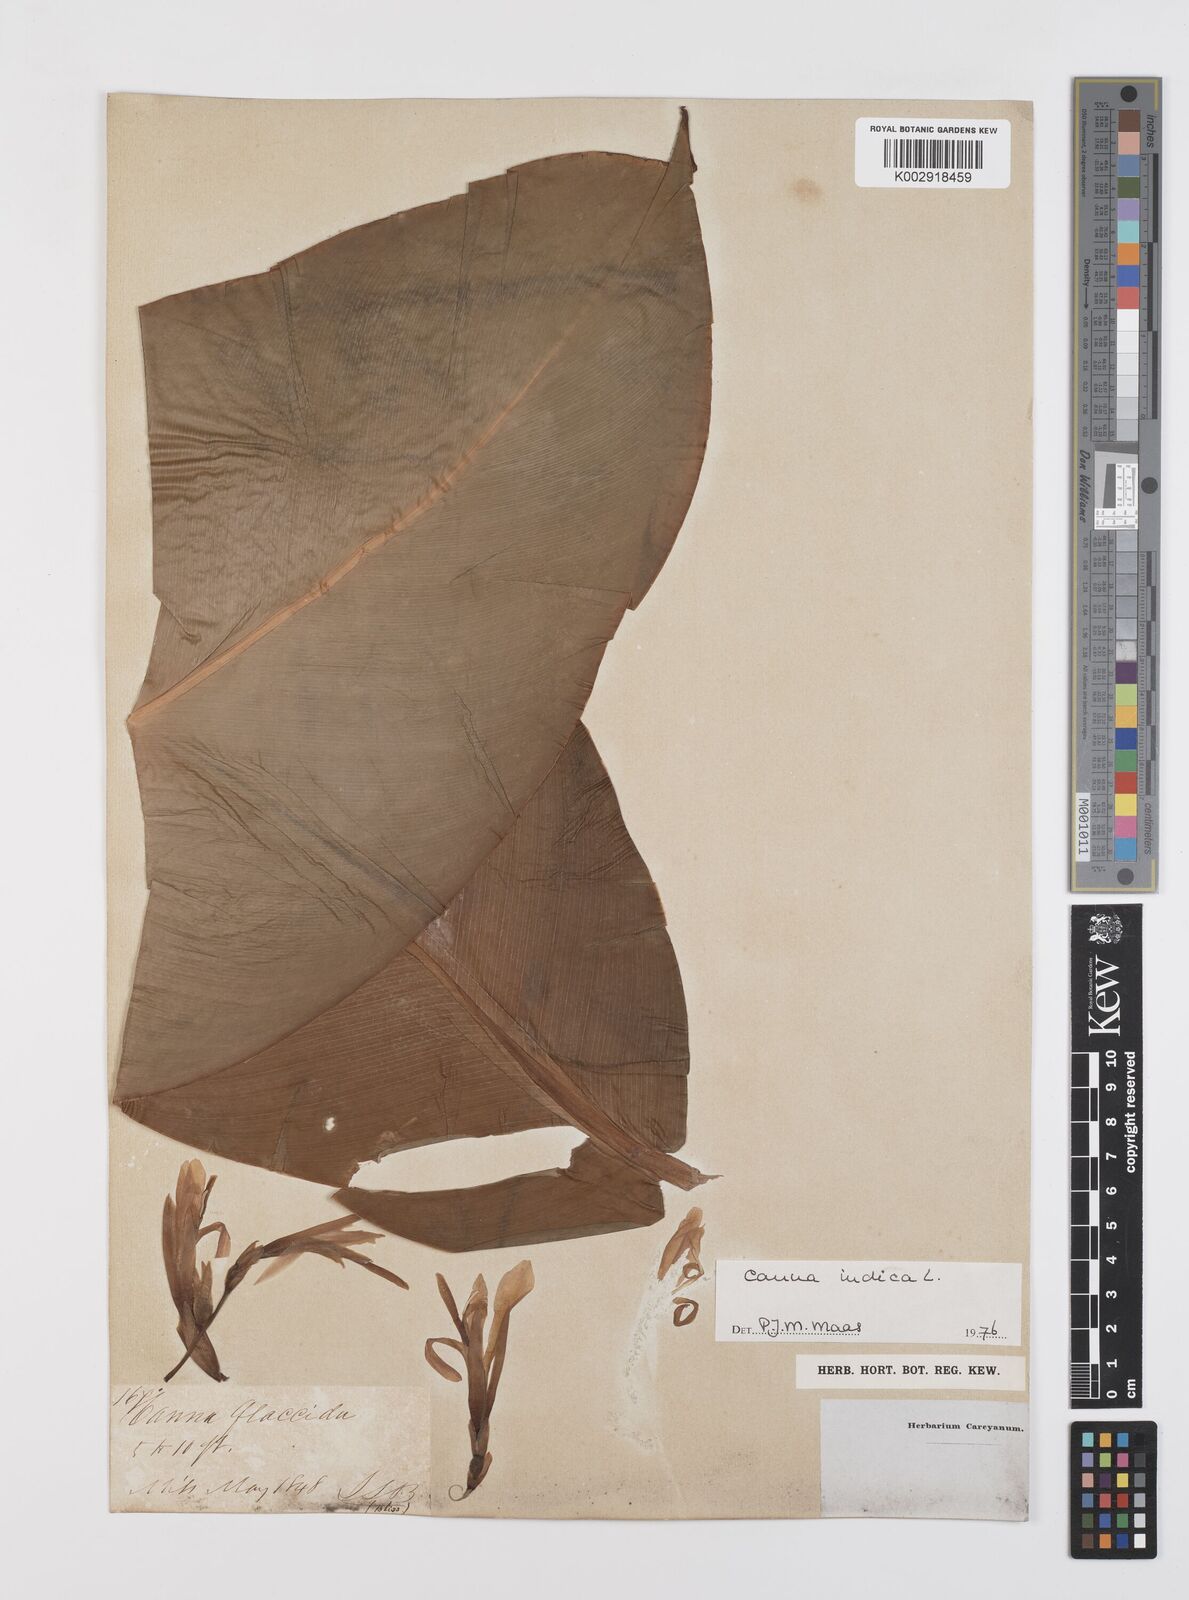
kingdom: Plantae
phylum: Tracheophyta
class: Liliopsida
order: Zingiberales
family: Cannaceae
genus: Canna
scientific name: Canna indica
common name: Indian shot
